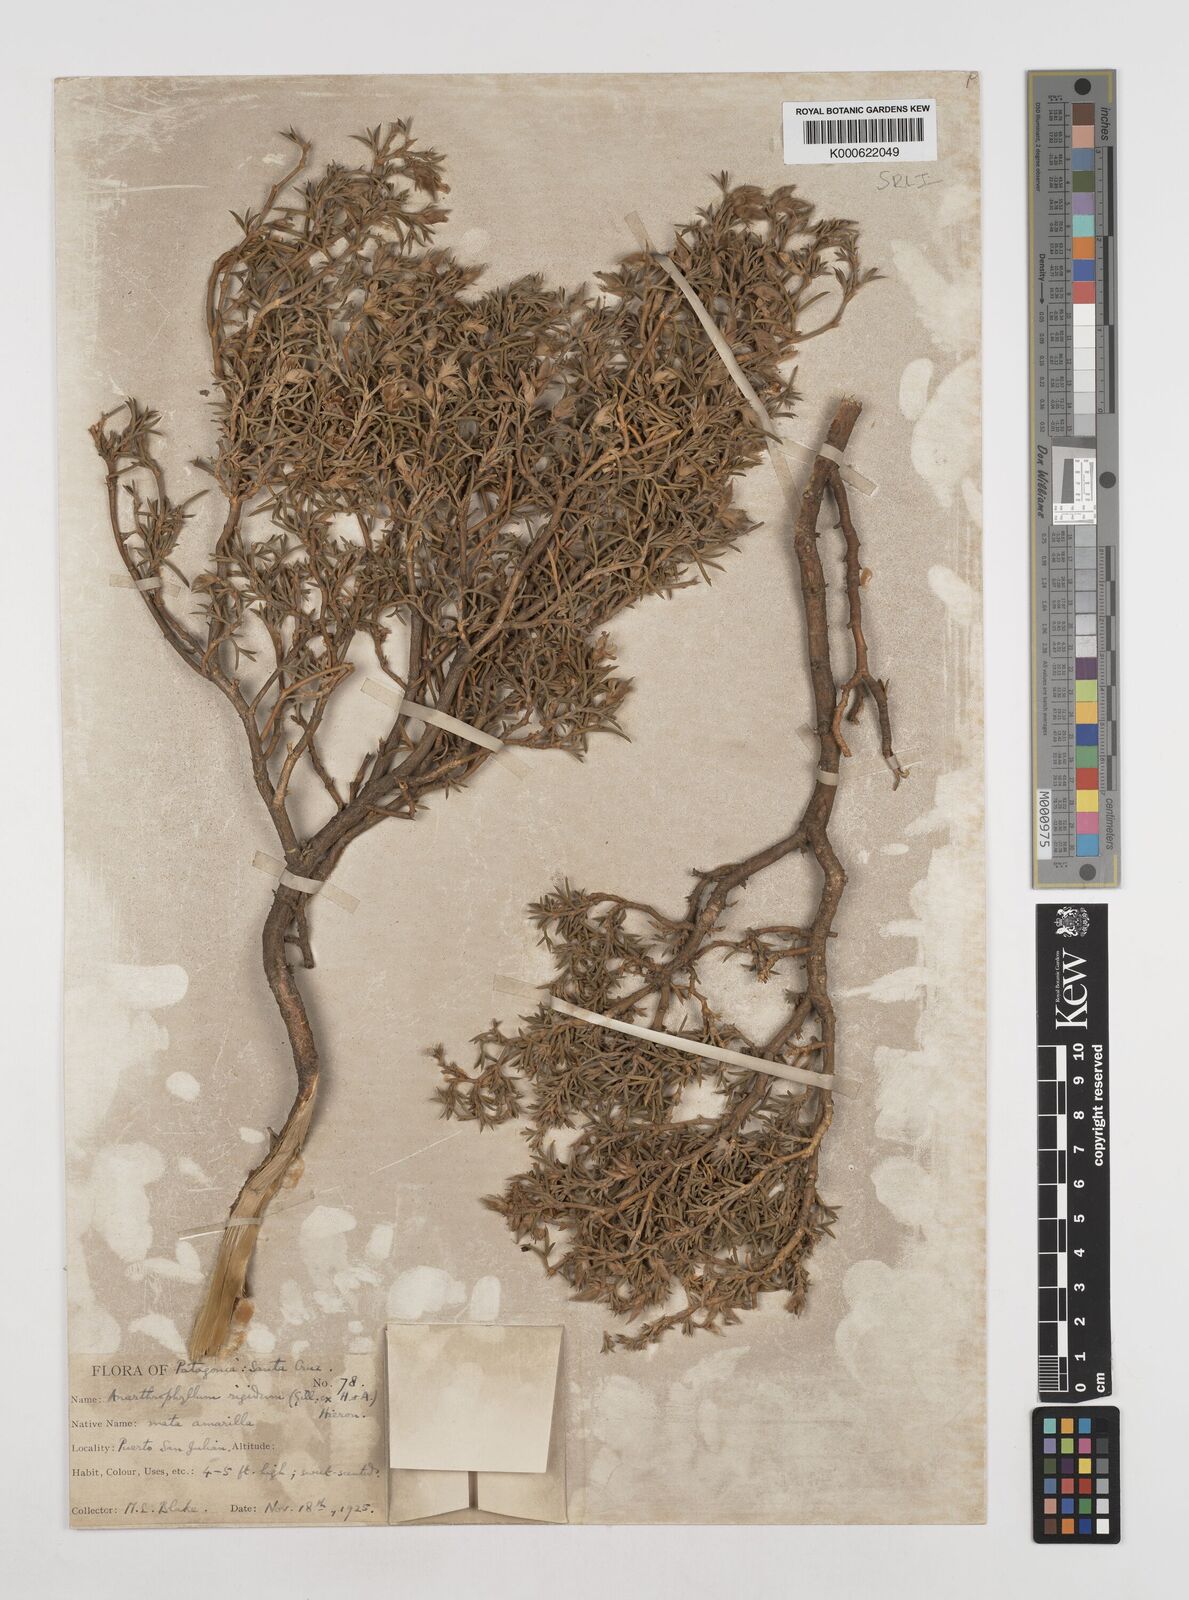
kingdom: Plantae
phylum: Tracheophyta
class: Magnoliopsida
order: Fabales
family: Fabaceae
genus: Anarthrophyllum
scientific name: Anarthrophyllum rigidum
